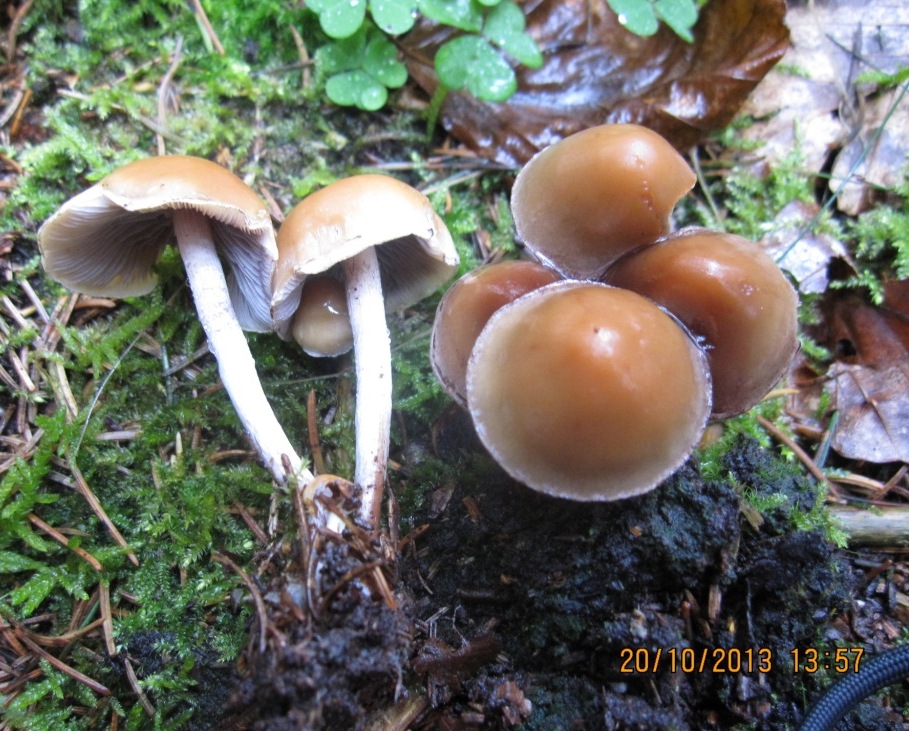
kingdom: Fungi
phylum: Basidiomycota
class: Agaricomycetes
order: Agaricales
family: Strophariaceae
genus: Hypholoma
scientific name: Hypholoma marginatum
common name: enlig svovlhat
